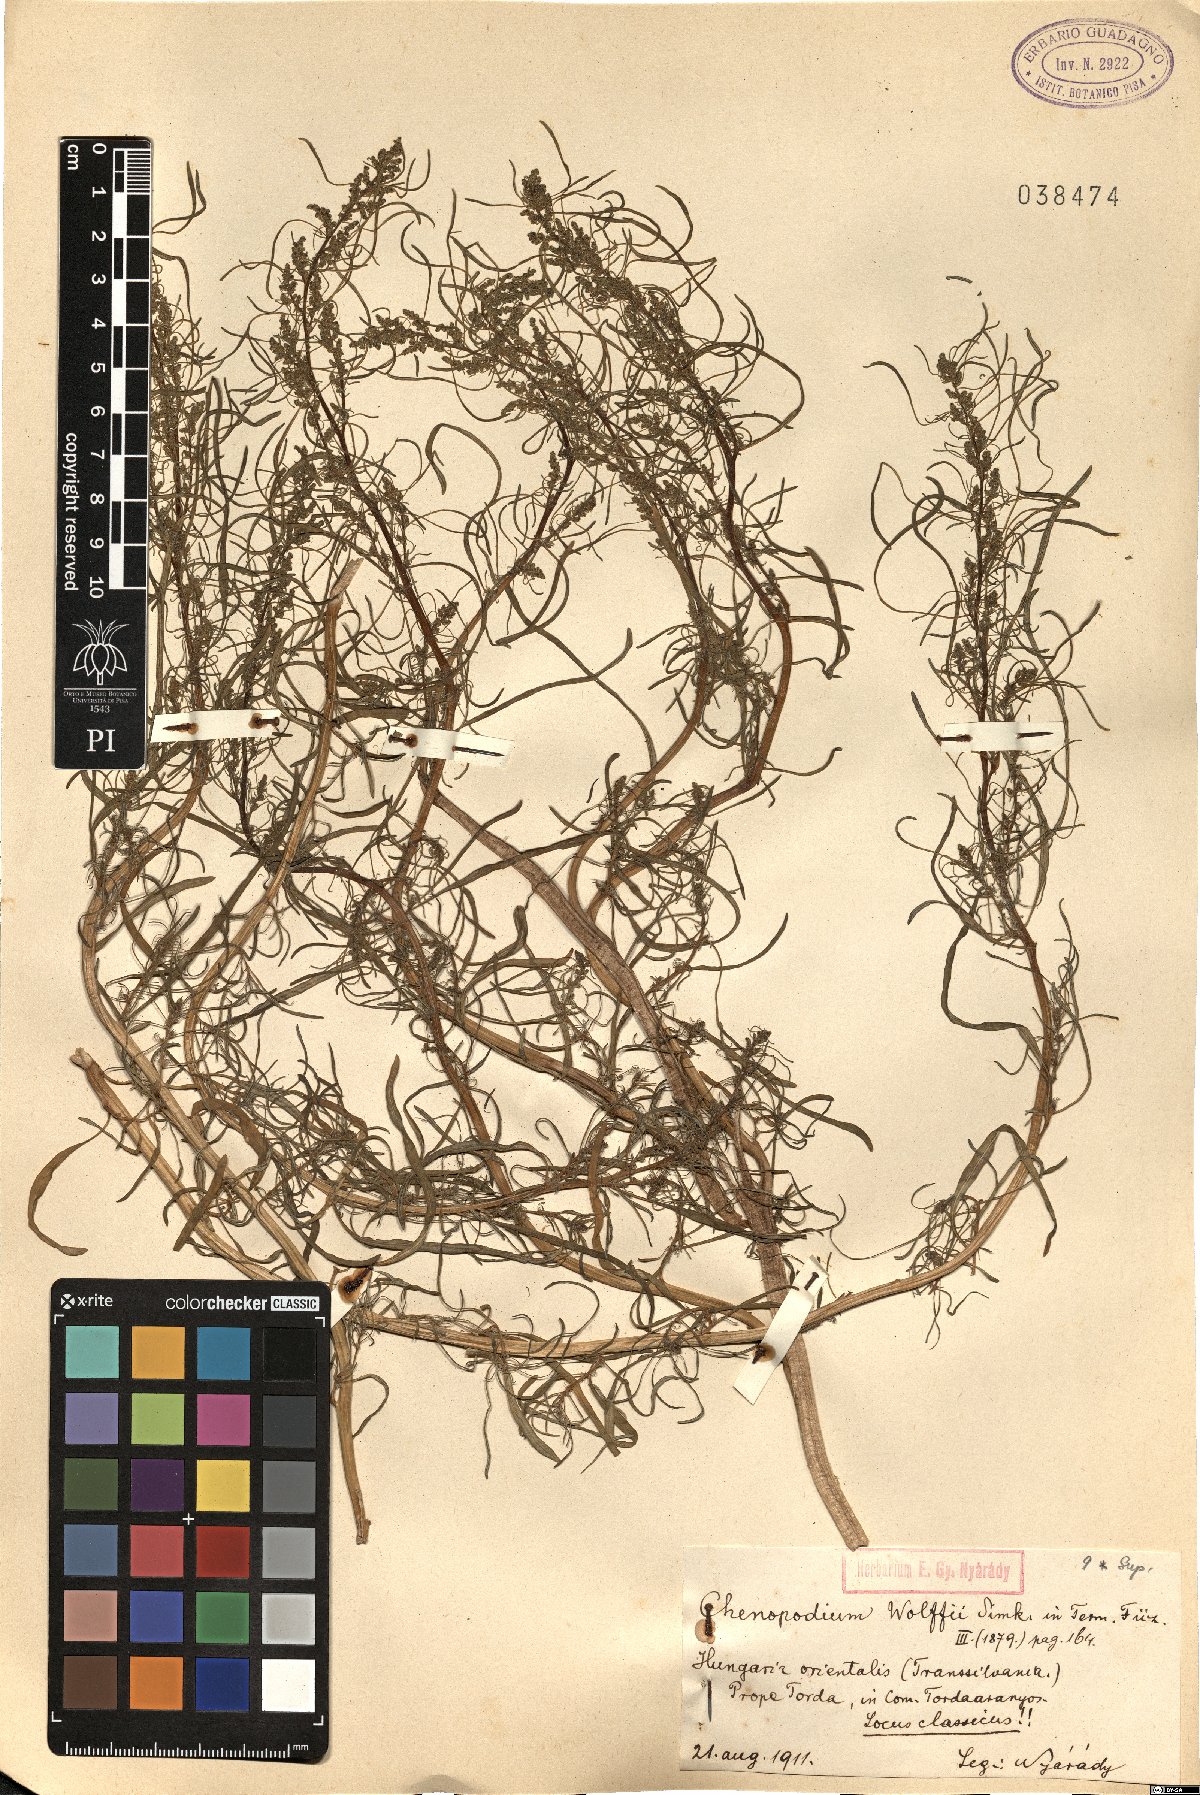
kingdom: Plantae
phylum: Tracheophyta
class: Magnoliopsida
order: Caryophyllales
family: Amaranthaceae
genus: Oxybasis
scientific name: Oxybasis glauca
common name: Glaucous goosefoot
